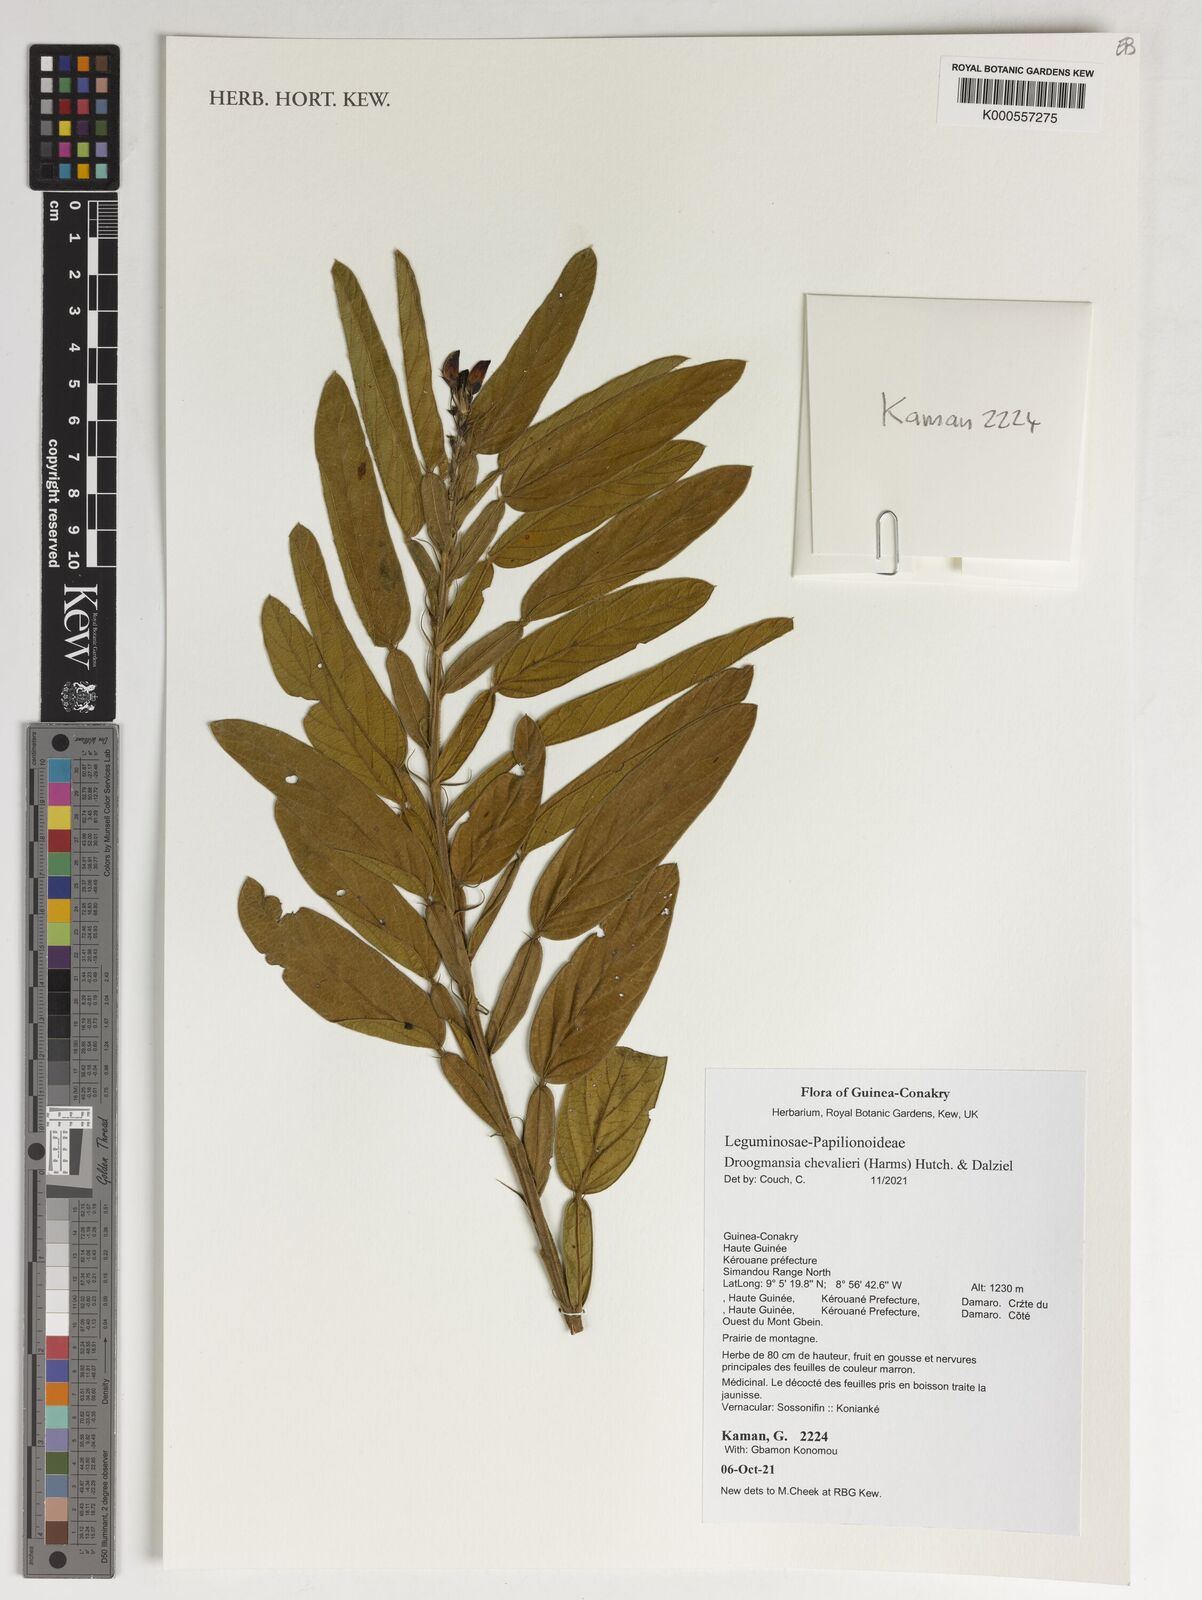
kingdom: Plantae
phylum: Tracheophyta
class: Magnoliopsida
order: Fabales
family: Fabaceae
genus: Droogmansia
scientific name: Droogmansia chevalieri
